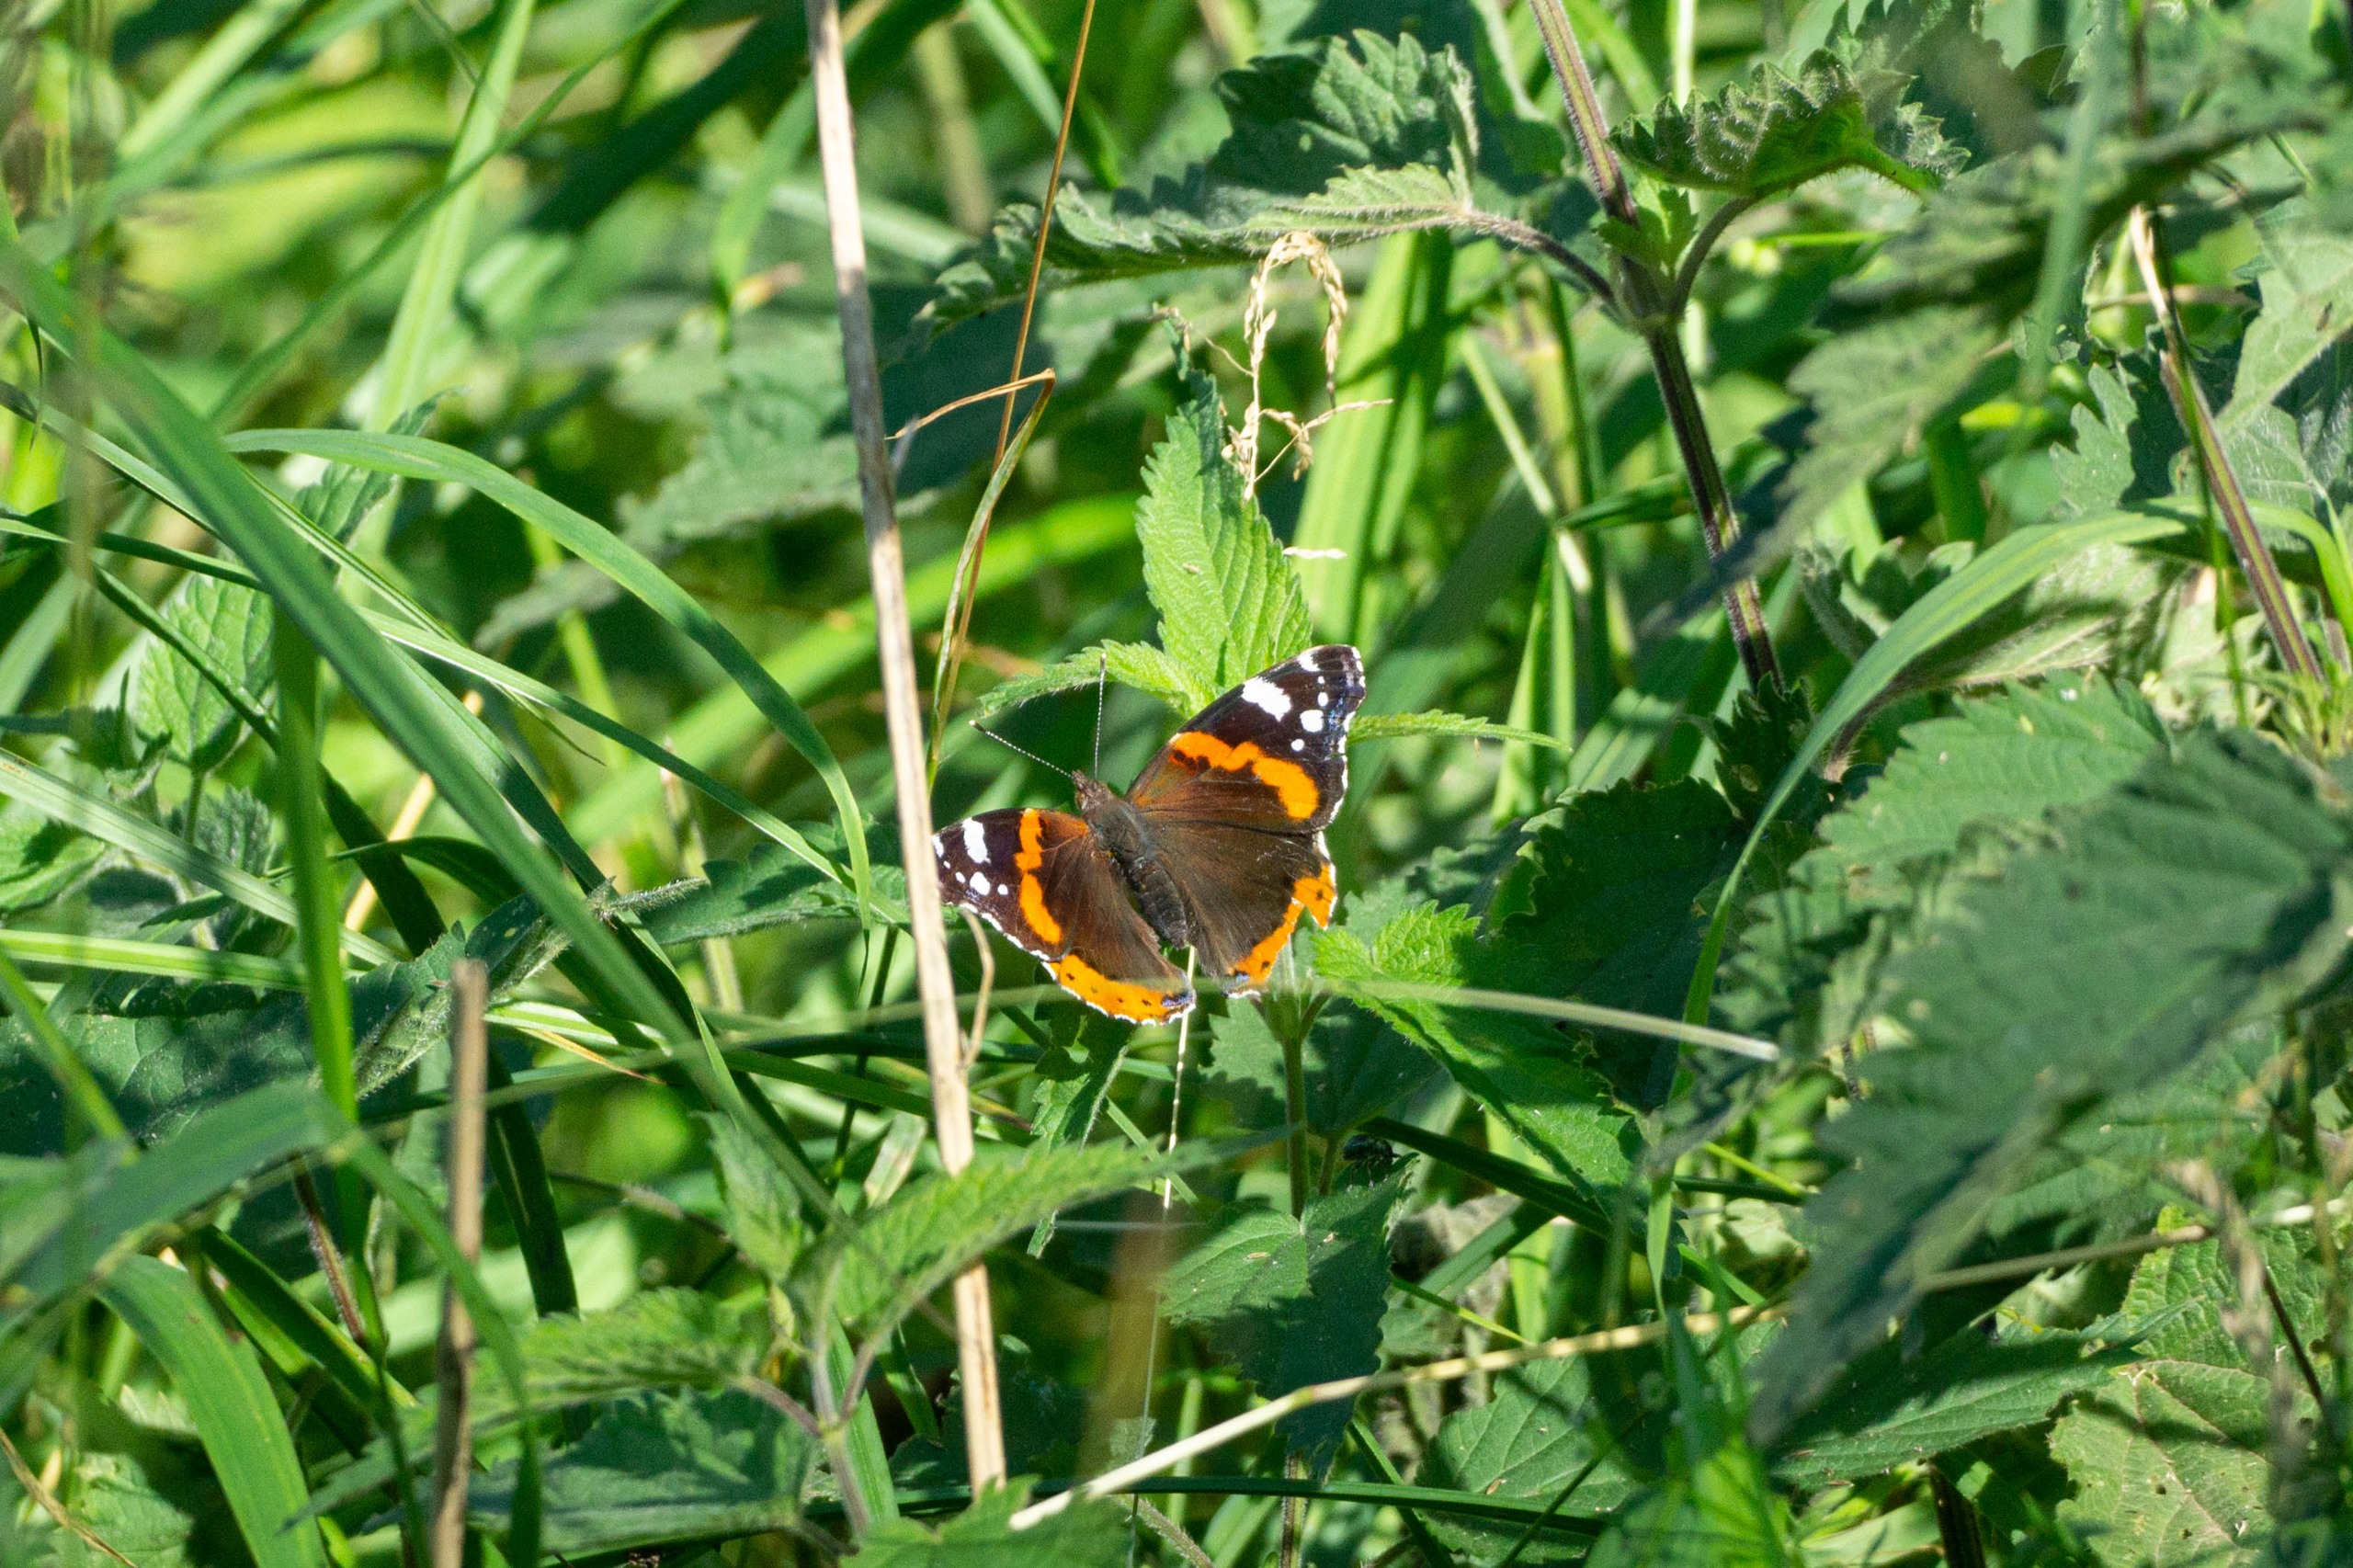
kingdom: Animalia
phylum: Arthropoda
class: Insecta
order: Lepidoptera
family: Nymphalidae
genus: Vanessa
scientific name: Vanessa atalanta
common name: Admiral
